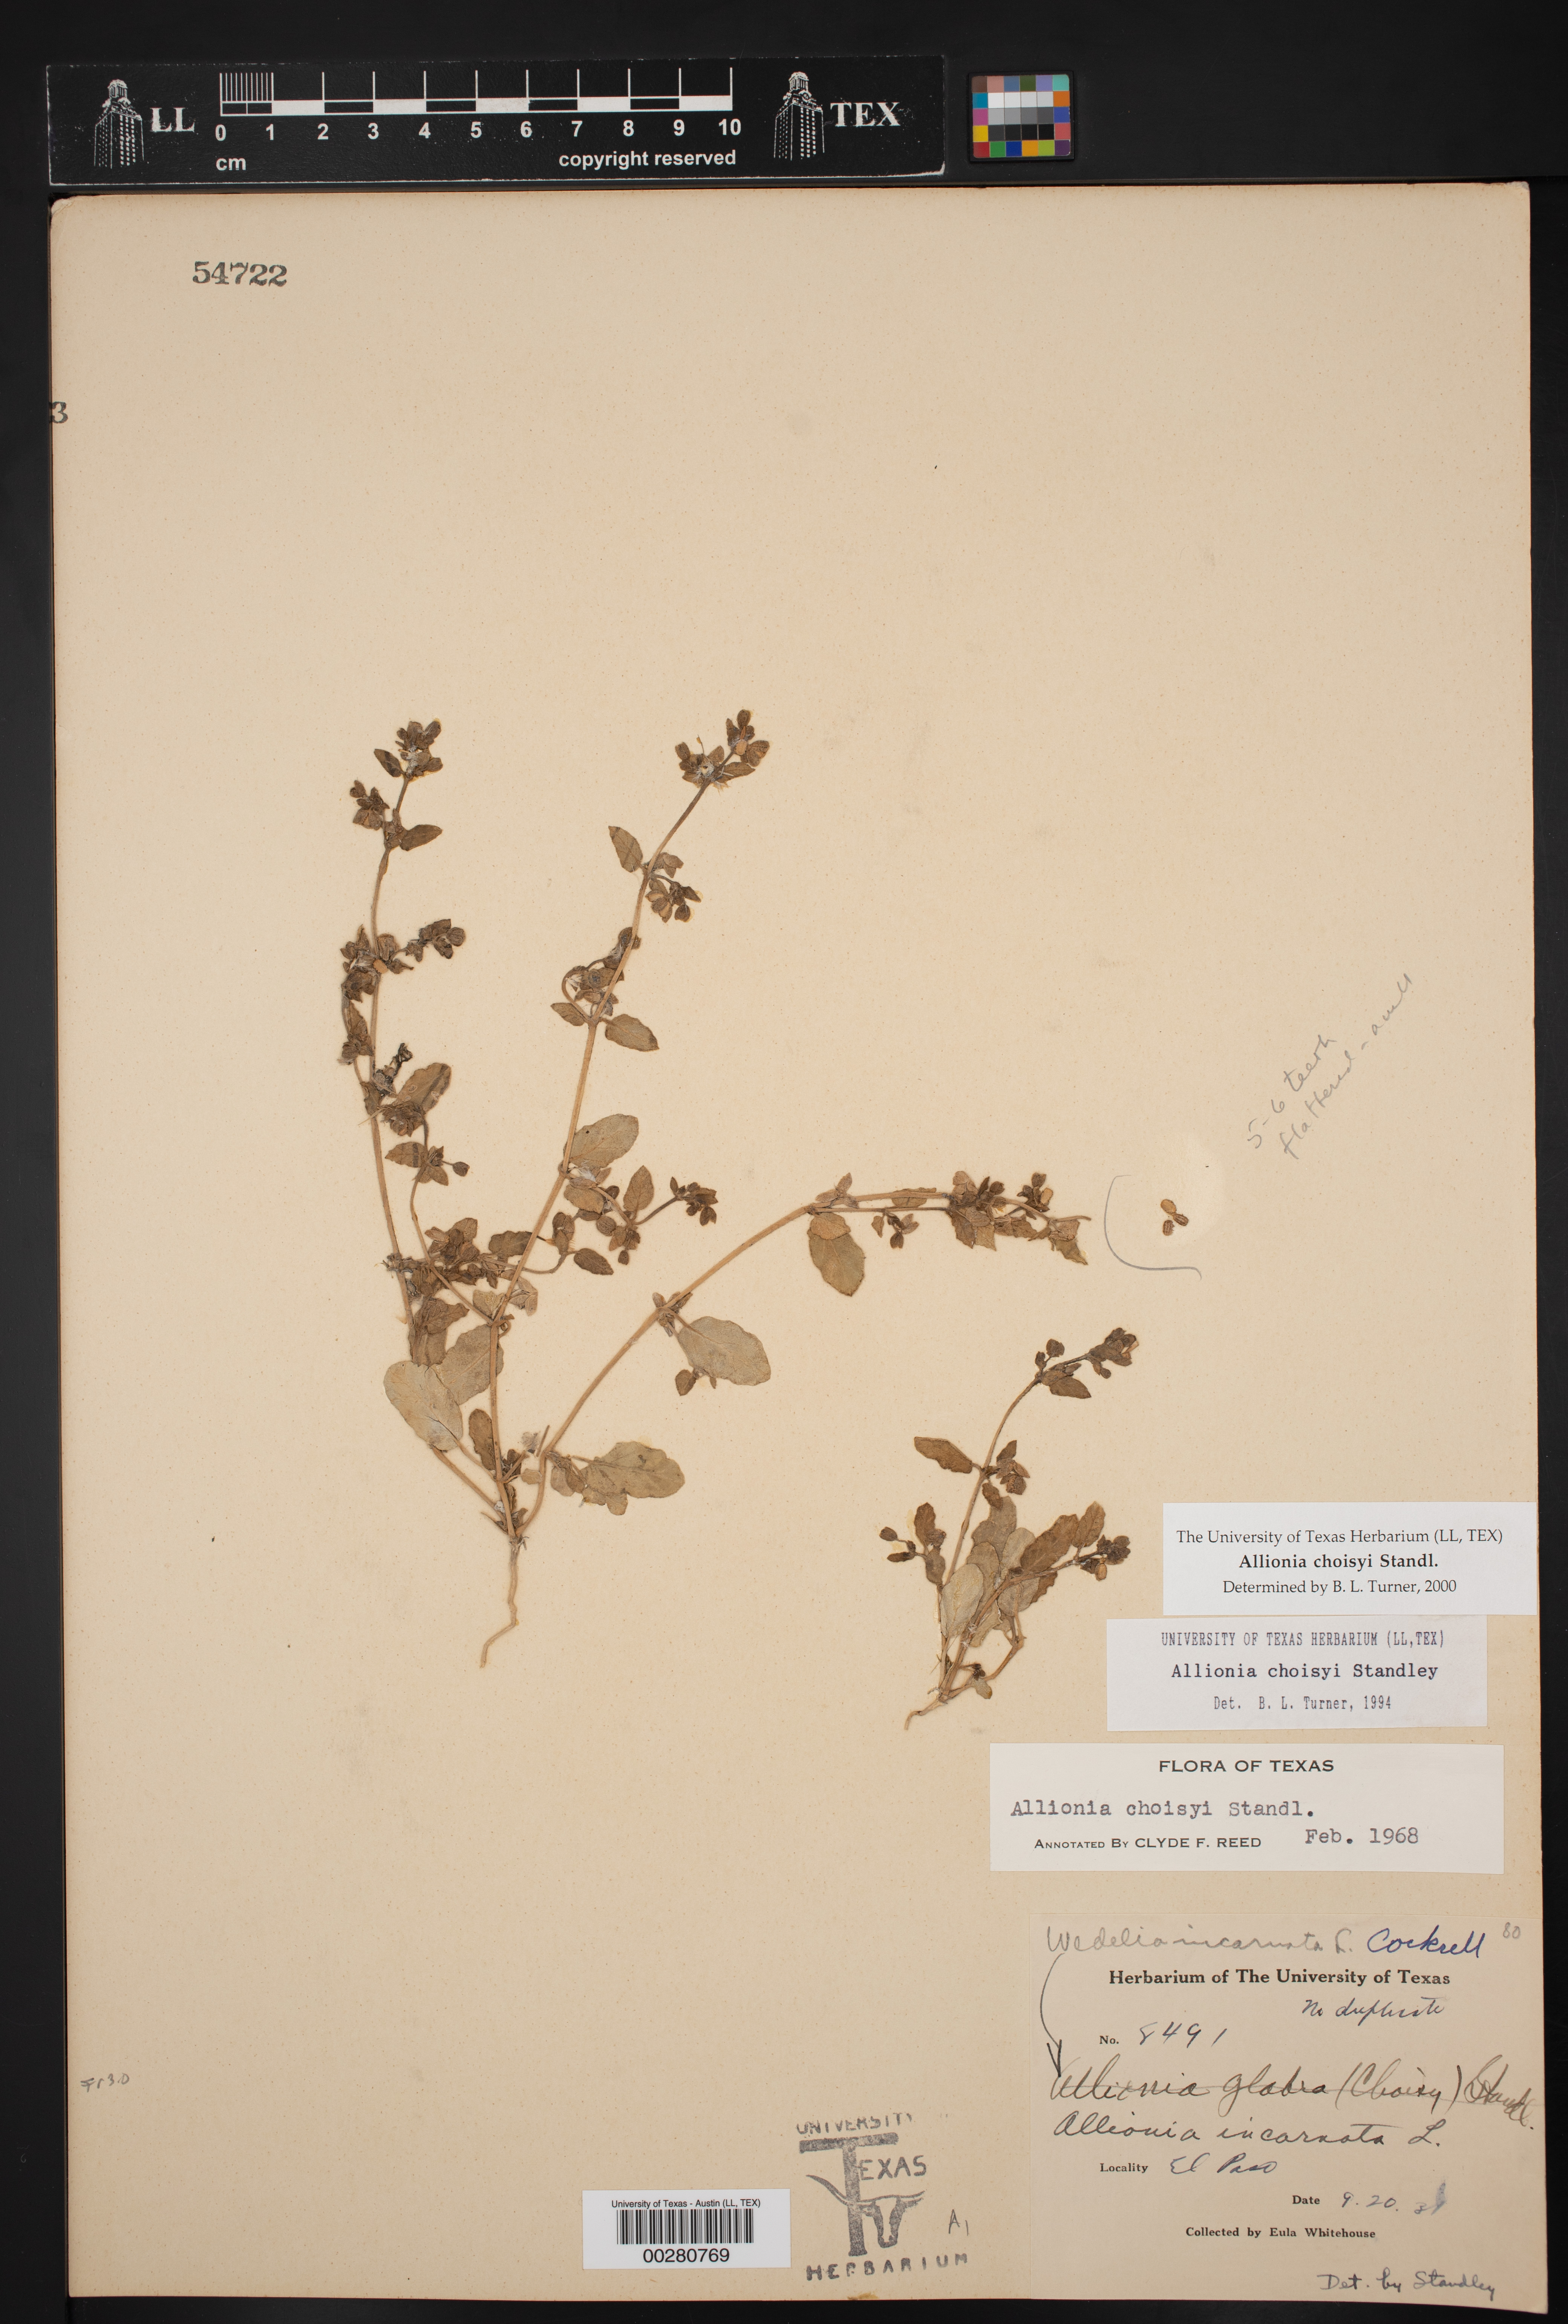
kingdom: Plantae
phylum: Tracheophyta
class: Magnoliopsida
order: Caryophyllales
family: Nyctaginaceae
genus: Allionia
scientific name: Allionia choisyi
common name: Trailing-four-o'clock
